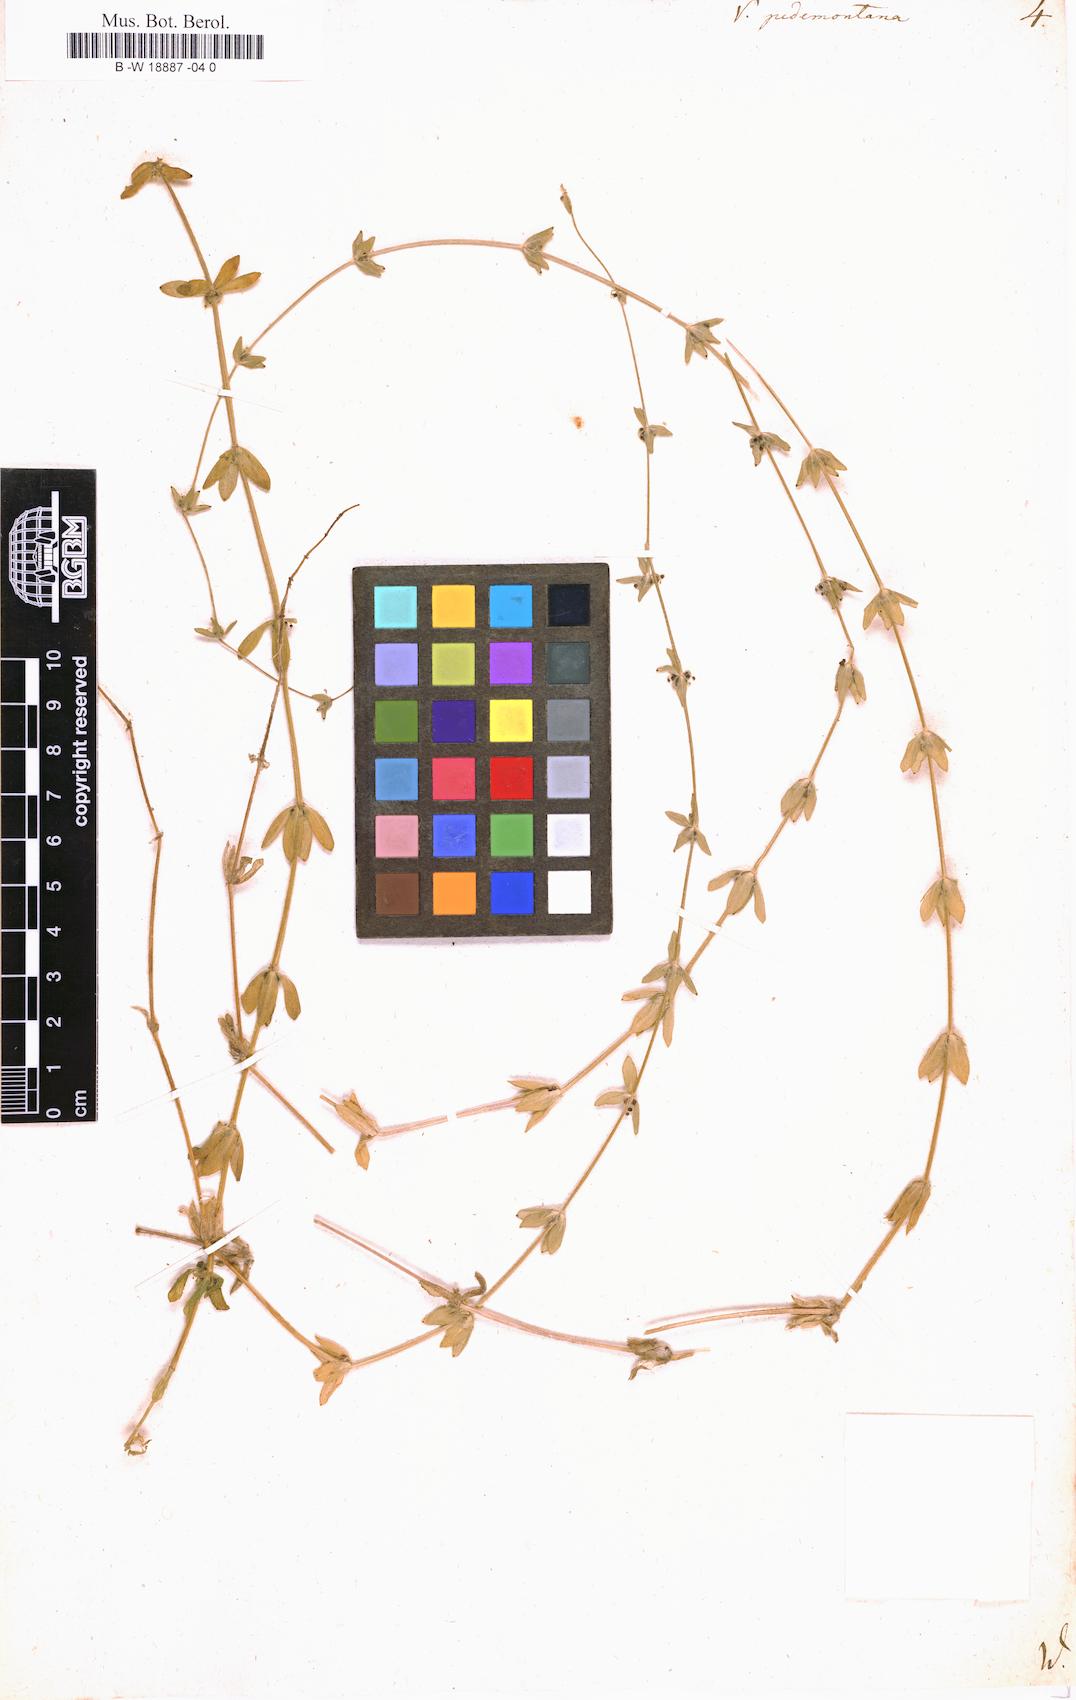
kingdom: Plantae
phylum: Tracheophyta
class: Magnoliopsida
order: Gentianales
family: Rubiaceae
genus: Cruciata
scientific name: Cruciata pedemontana
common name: Piedmont bedstraw
